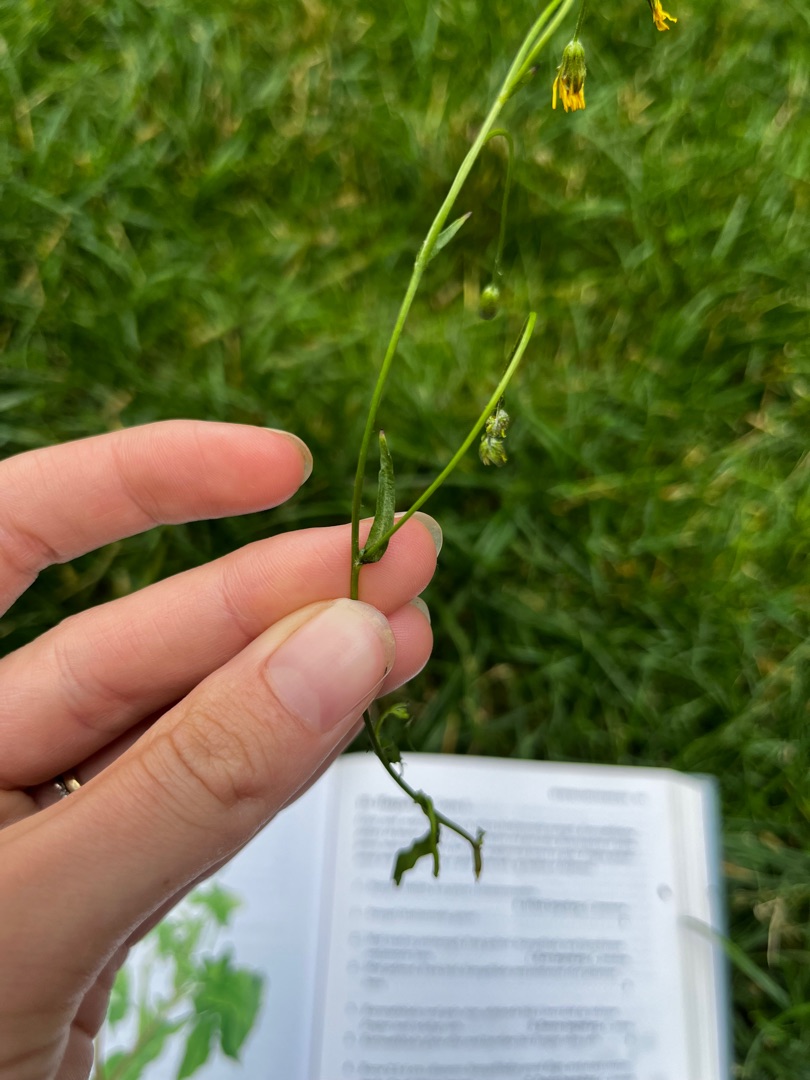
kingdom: Plantae
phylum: Tracheophyta
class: Magnoliopsida
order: Asterales
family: Asteraceae
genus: Crepis
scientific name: Crepis capillaris
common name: Grøn høgeskæg
